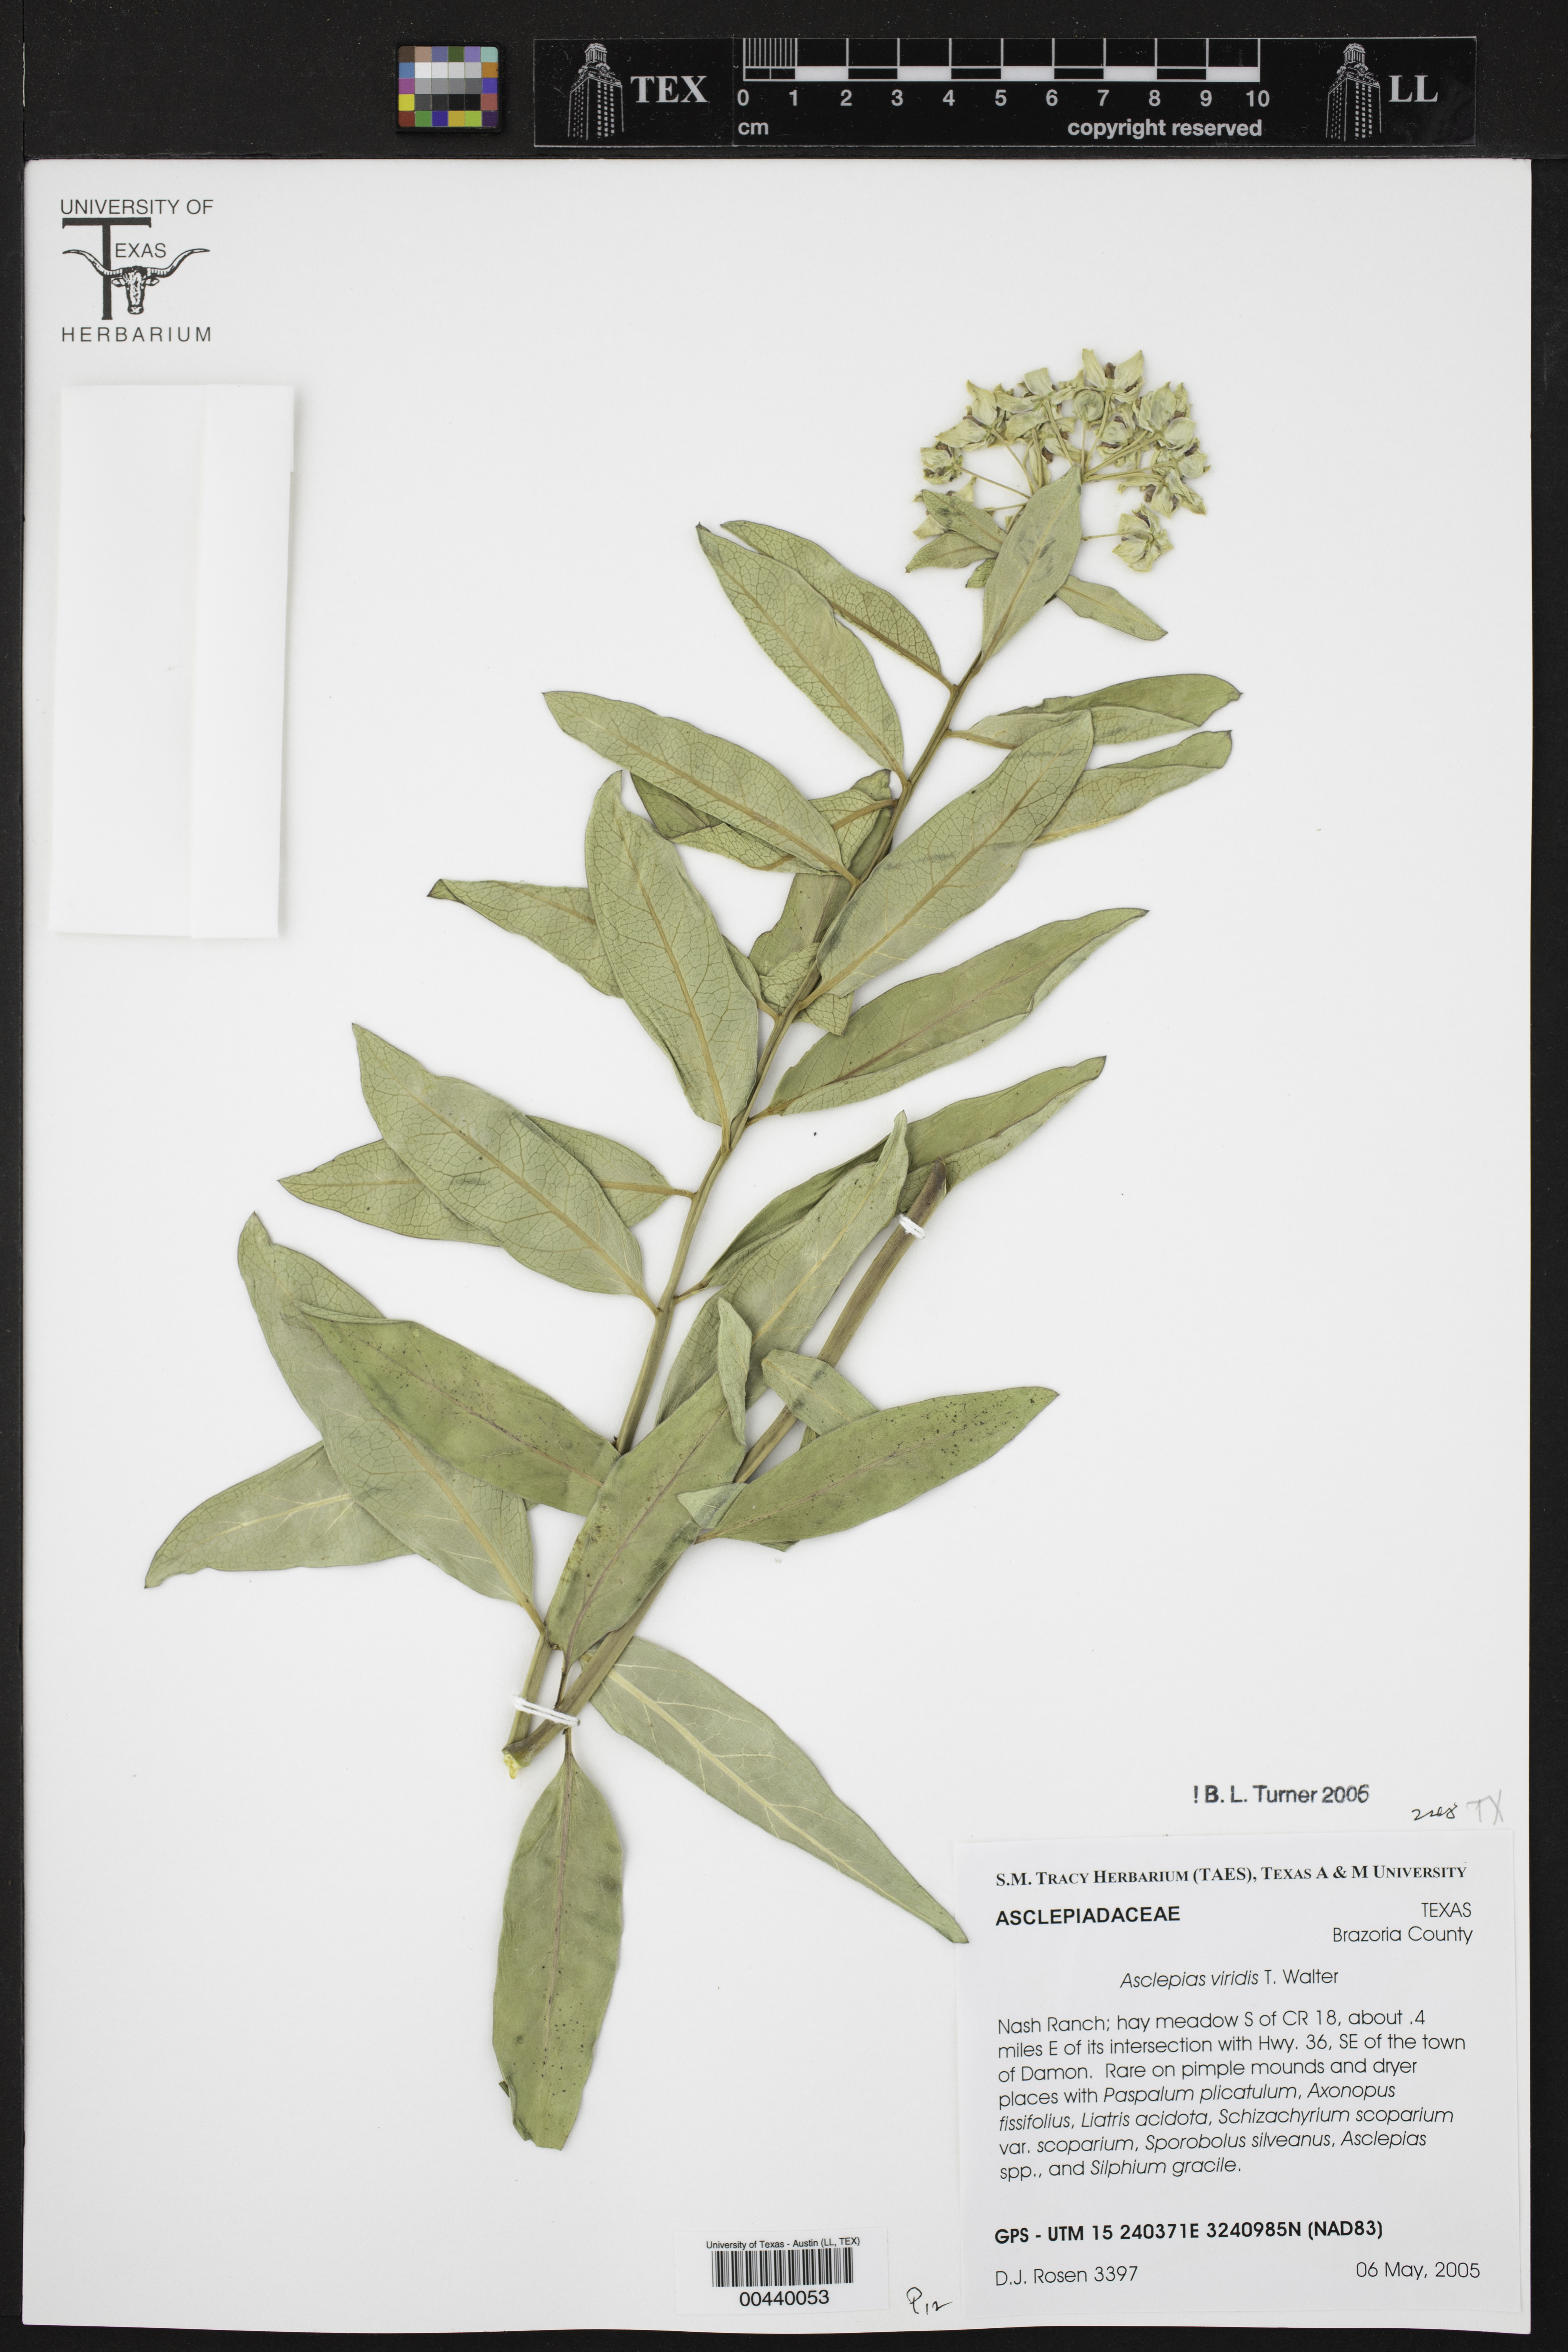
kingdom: Plantae
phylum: Tracheophyta
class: Magnoliopsida
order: Gentianales
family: Apocynaceae
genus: Asclepias
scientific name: Asclepias viridis
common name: Antelope-horns
